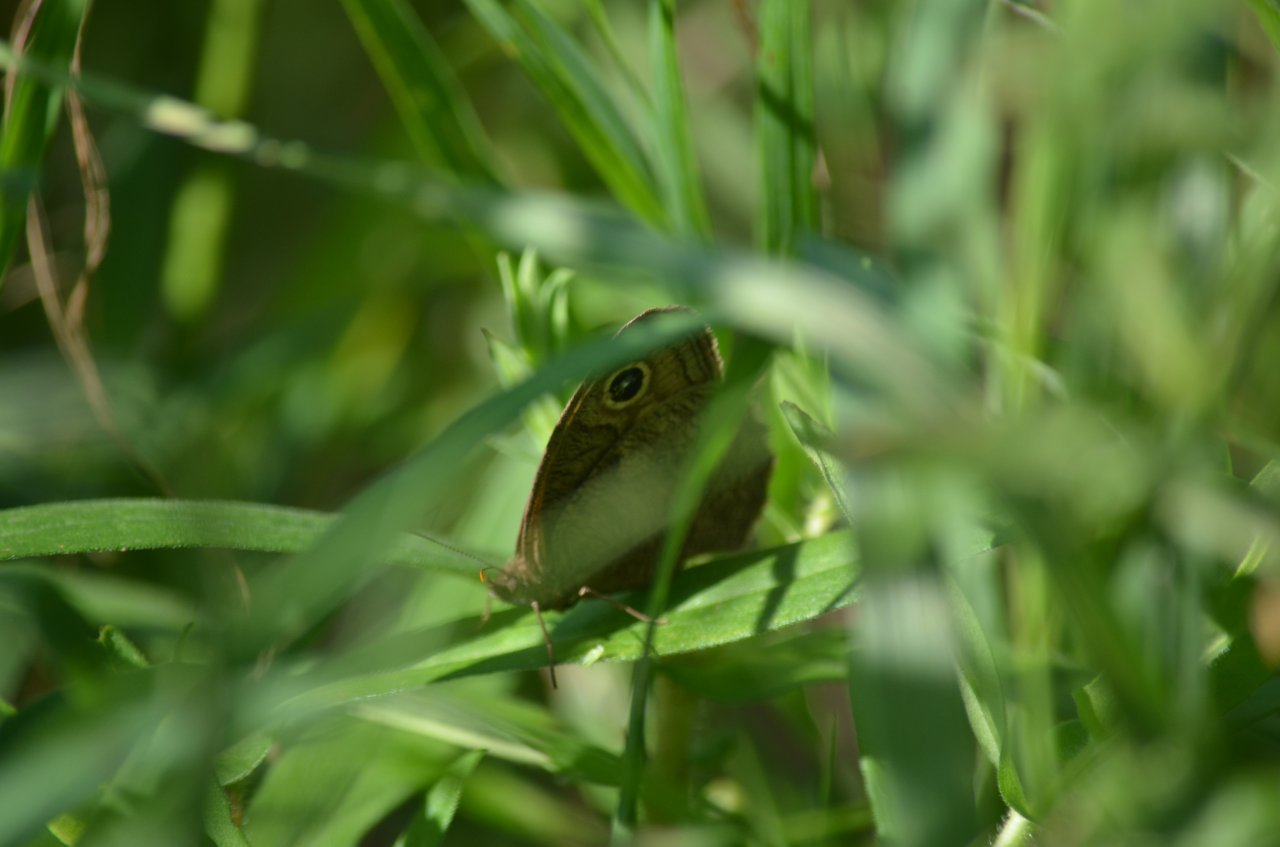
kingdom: Animalia
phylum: Arthropoda
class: Insecta
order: Lepidoptera
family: Nymphalidae
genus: Cercyonis
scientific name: Cercyonis pegala
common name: Common Wood-Nymph
